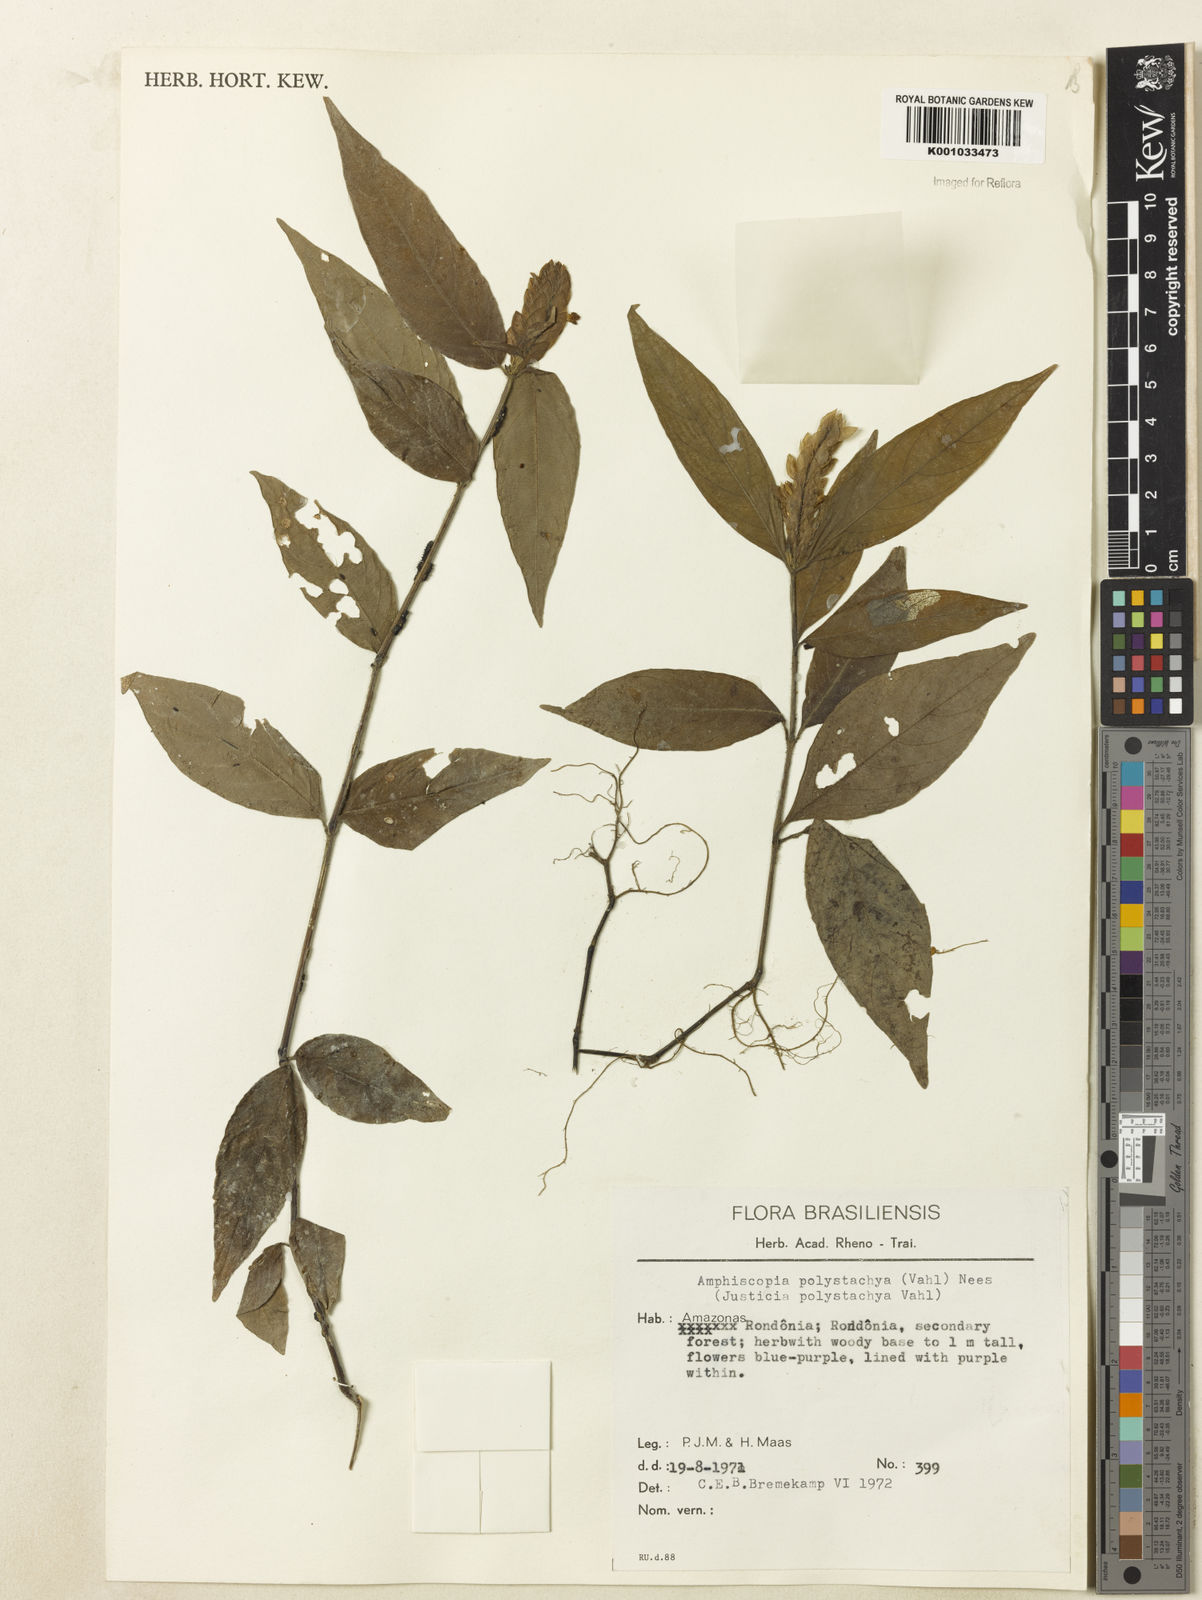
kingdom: Plantae
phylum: Tracheophyta
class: Magnoliopsida
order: Lamiales
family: Acanthaceae
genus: Justicia
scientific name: Justicia polystachya
